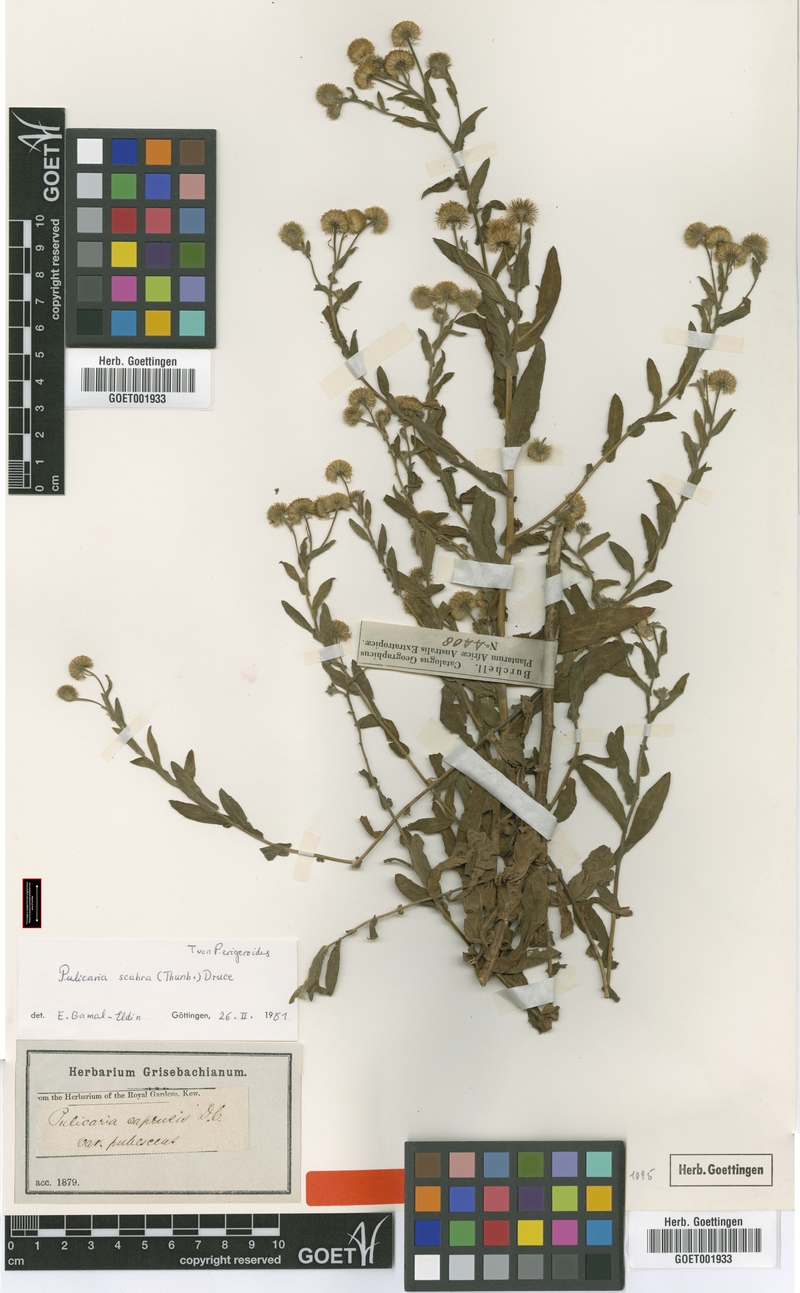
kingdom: Plantae
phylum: Tracheophyta
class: Magnoliopsida
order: Asterales
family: Asteraceae
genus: Pulicaria
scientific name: Pulicaria scabra
